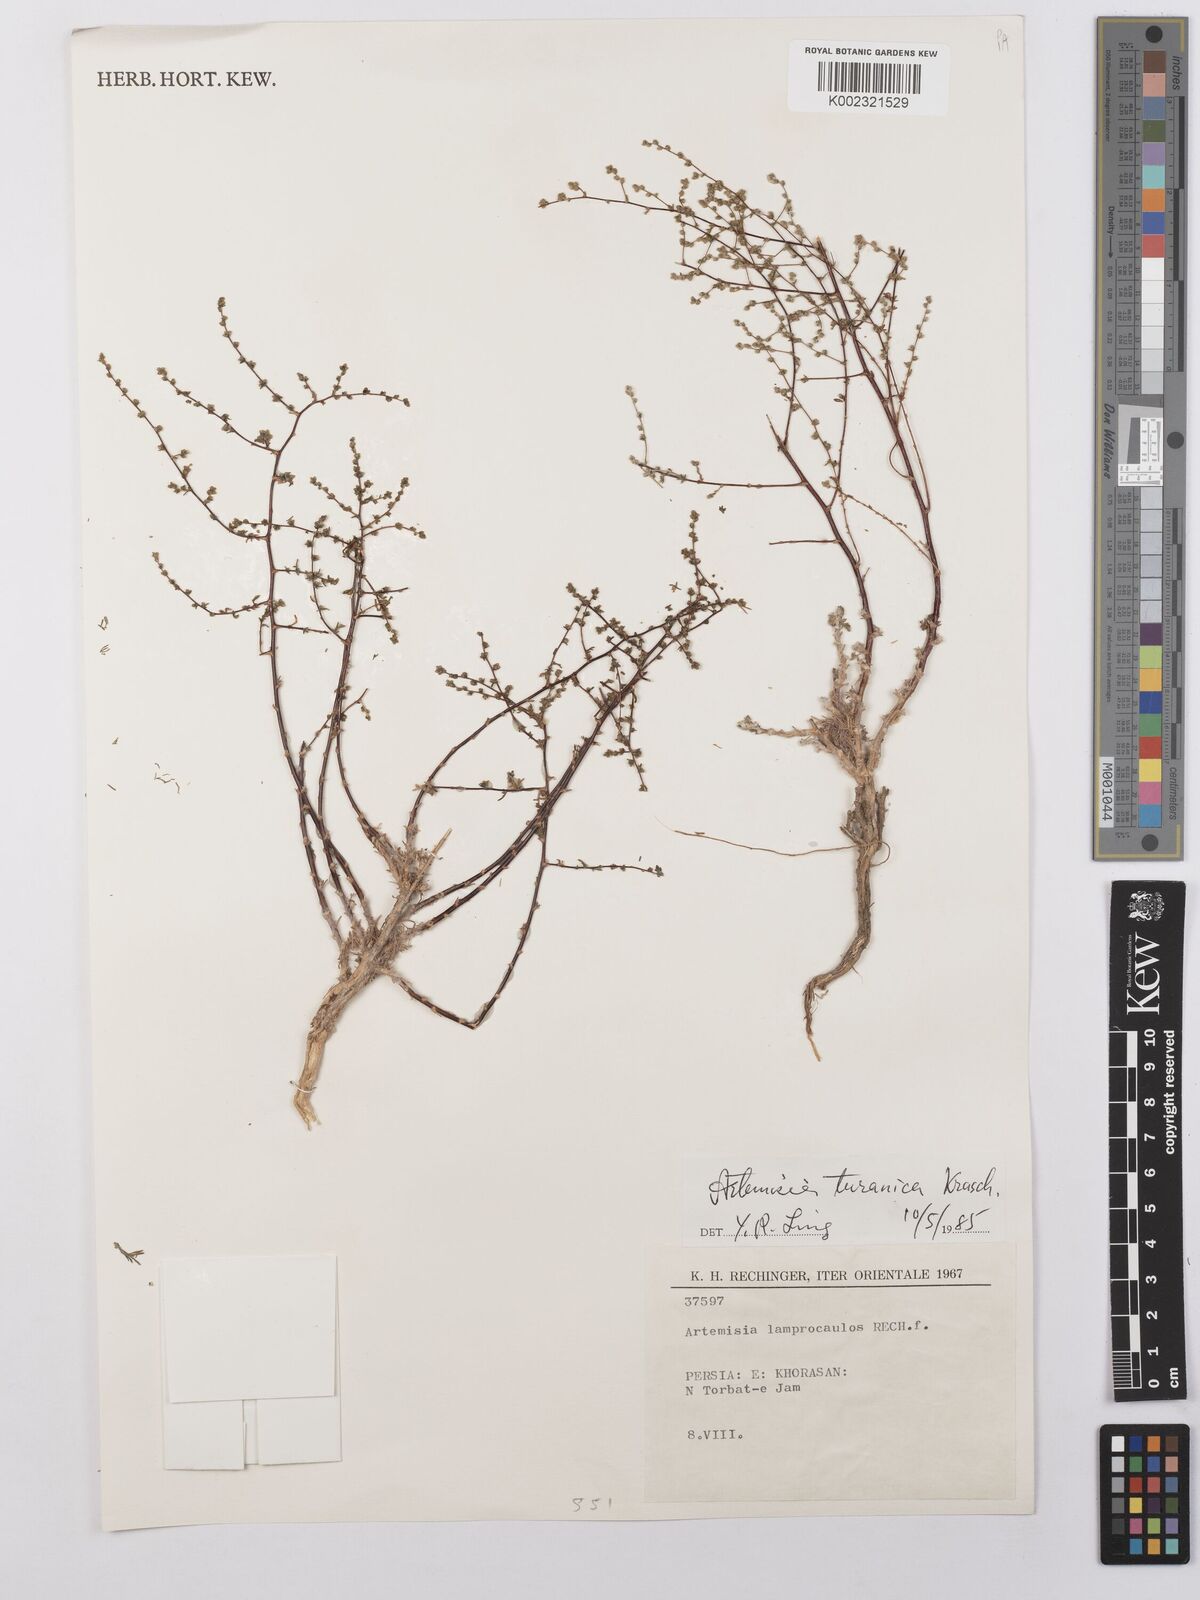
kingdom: Plantae
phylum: Tracheophyta
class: Magnoliopsida
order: Asterales
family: Asteraceae
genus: Artemisia
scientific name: Artemisia turanica
